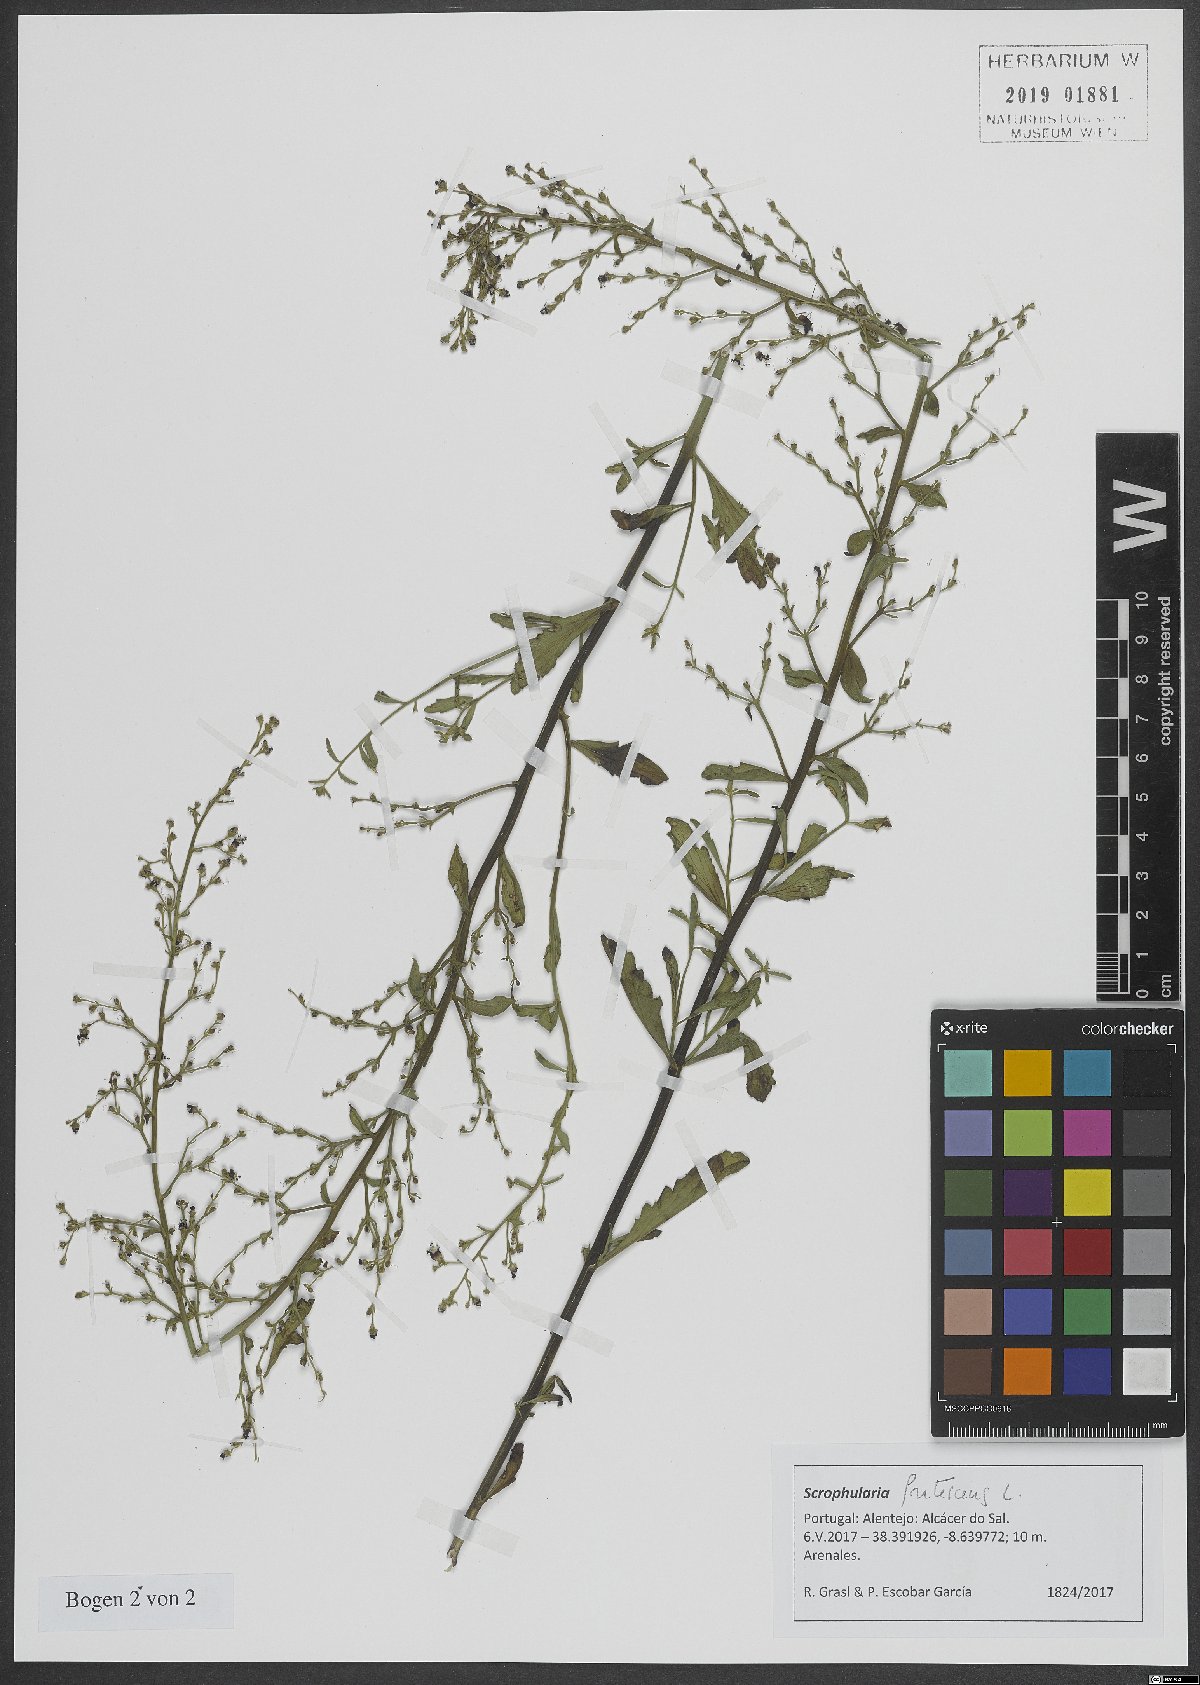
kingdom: Plantae
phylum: Tracheophyta
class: Magnoliopsida
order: Lamiales
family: Scrophulariaceae
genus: Scrophularia
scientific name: Scrophularia frutescens
